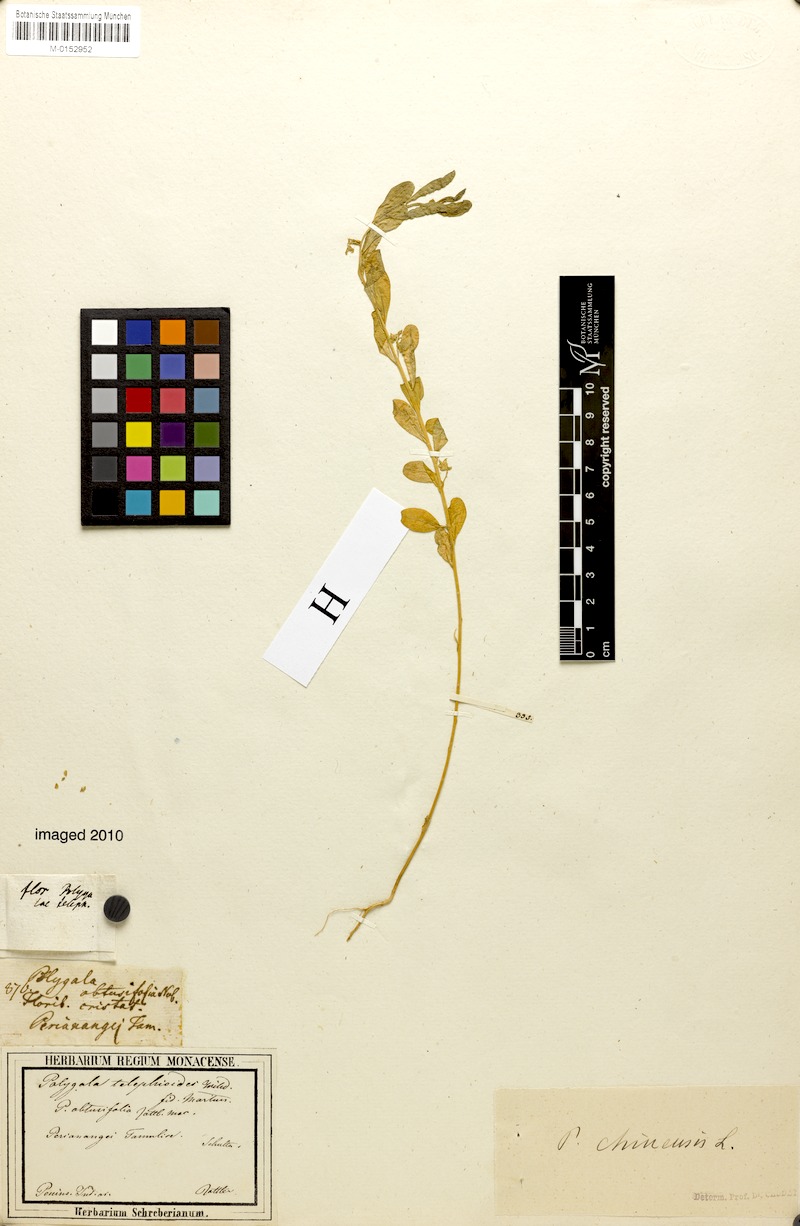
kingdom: Plantae
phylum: Tracheophyta
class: Magnoliopsida
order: Fabales
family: Polygalaceae
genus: Polygala
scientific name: Polygala glomerata
